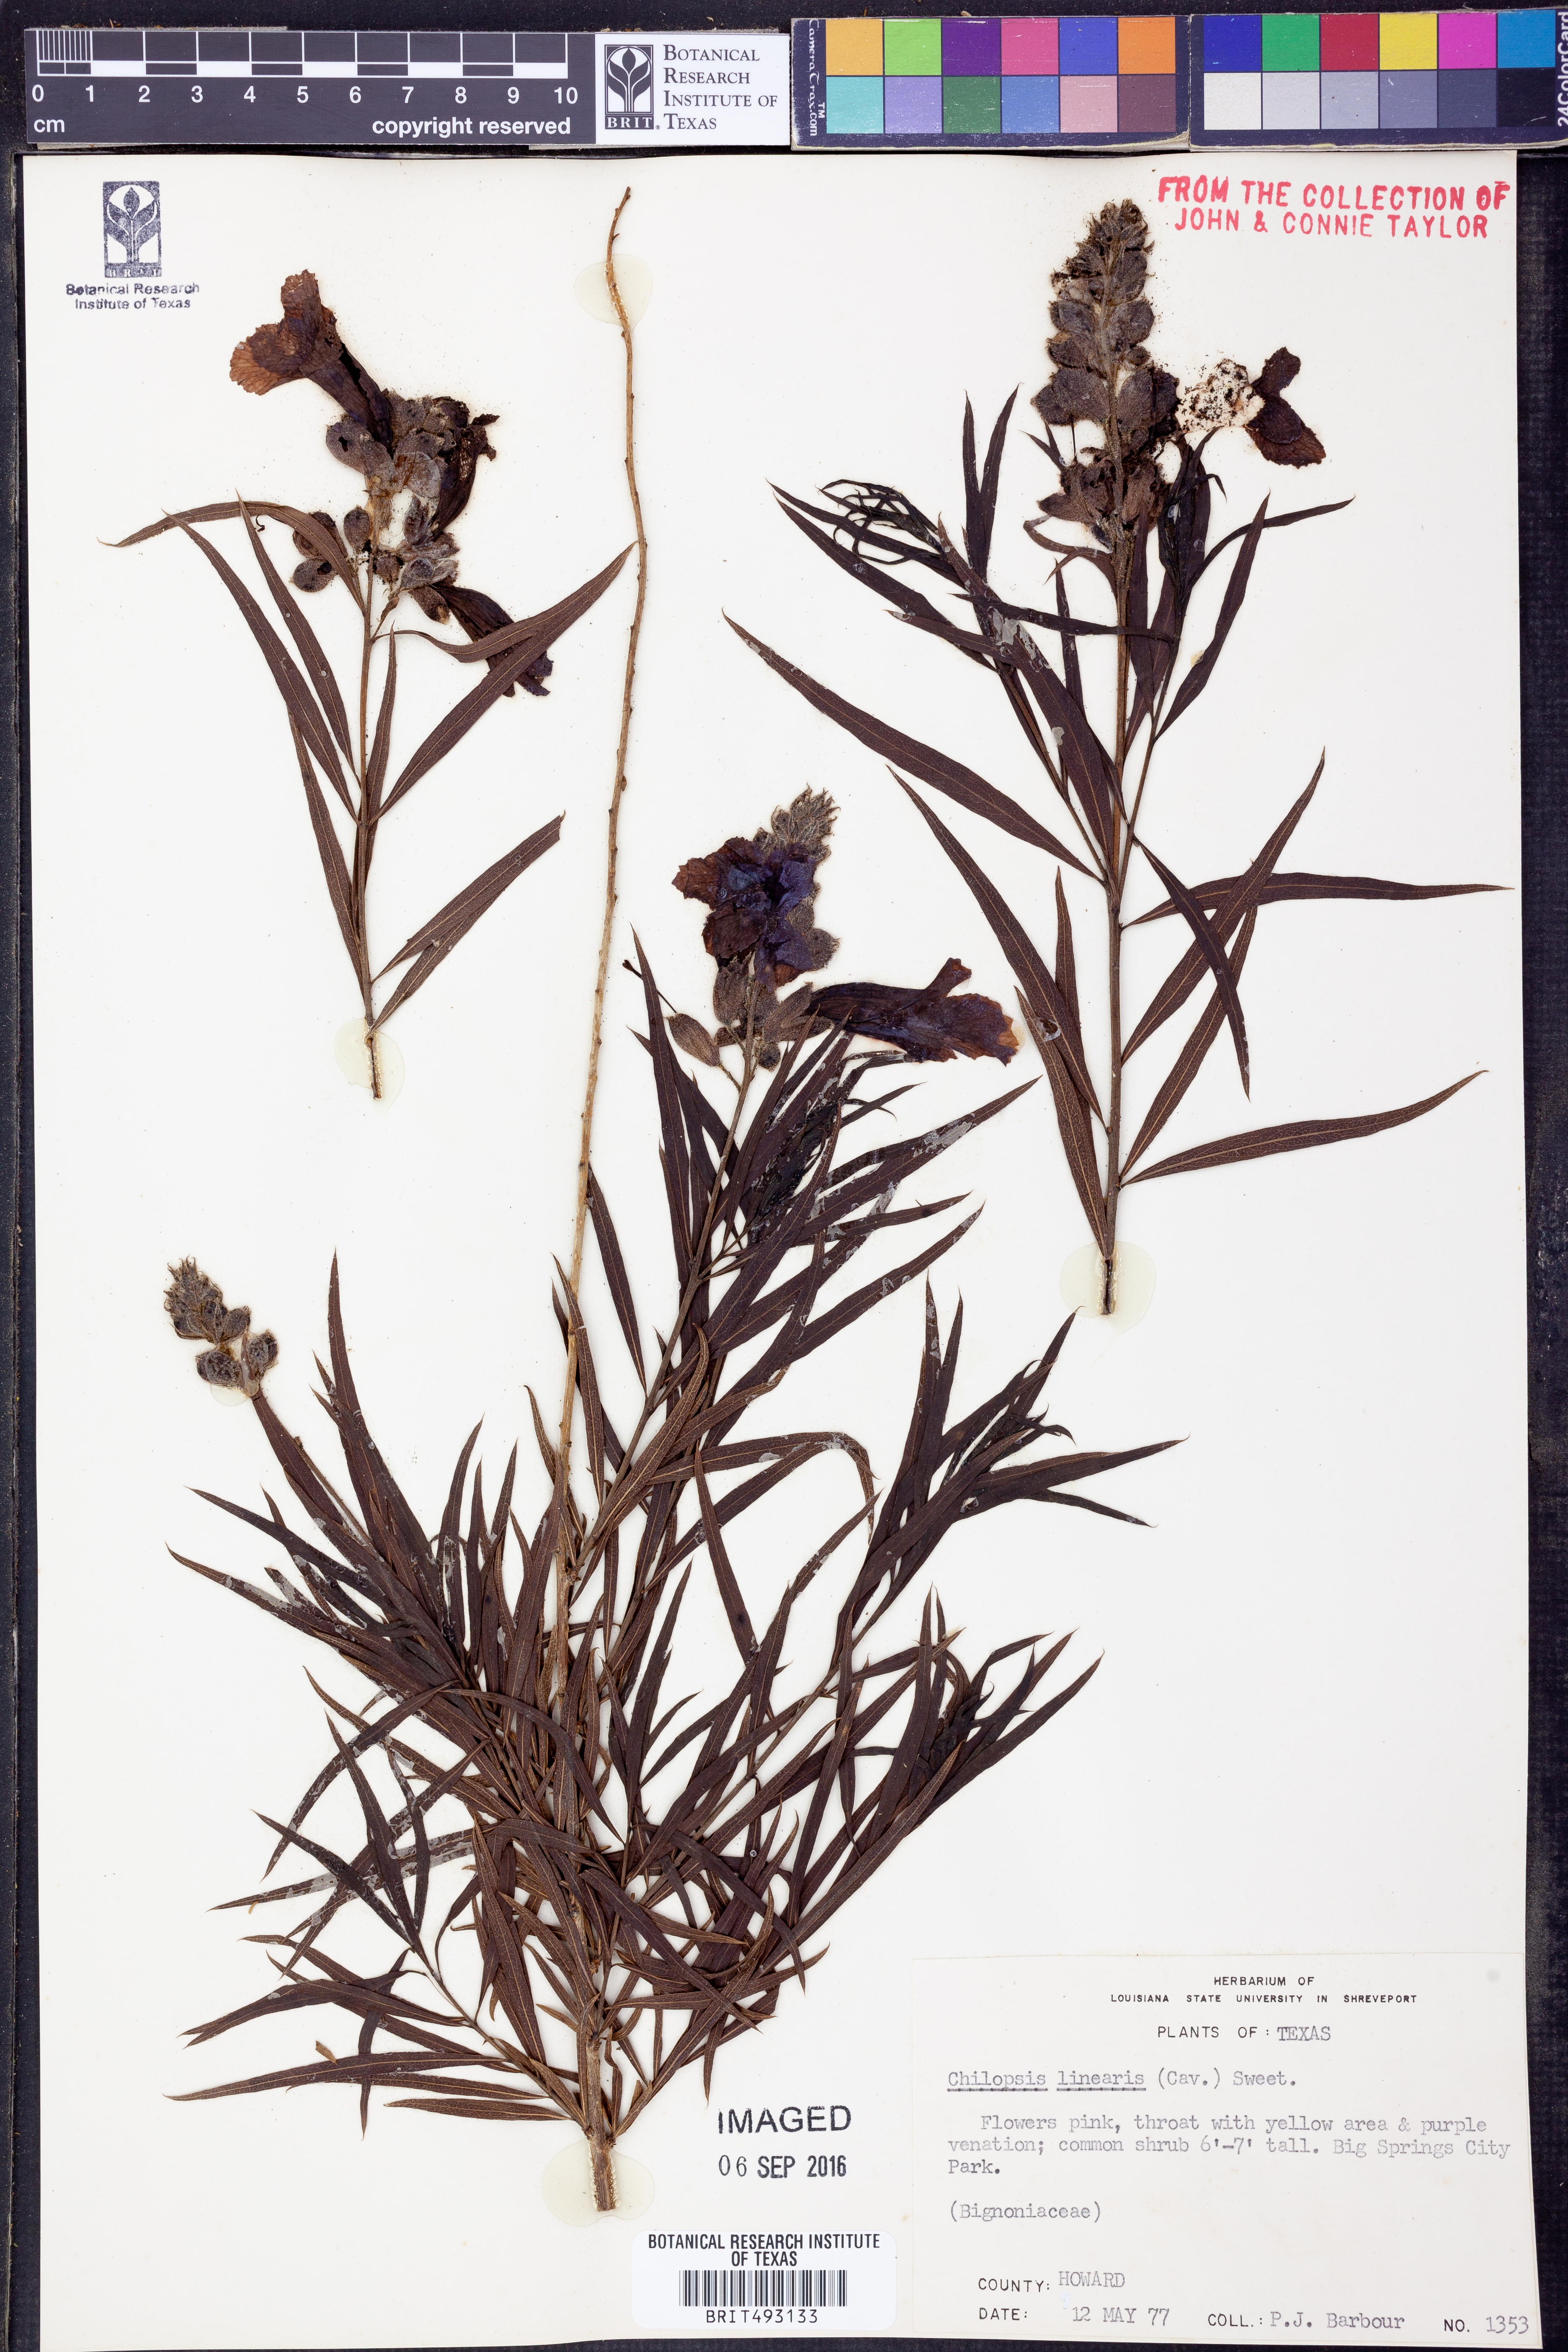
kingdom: Plantae
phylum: Tracheophyta
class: Magnoliopsida
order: Lamiales
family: Bignoniaceae
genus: Chilopsis
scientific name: Chilopsis linearis
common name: Desert-willow
